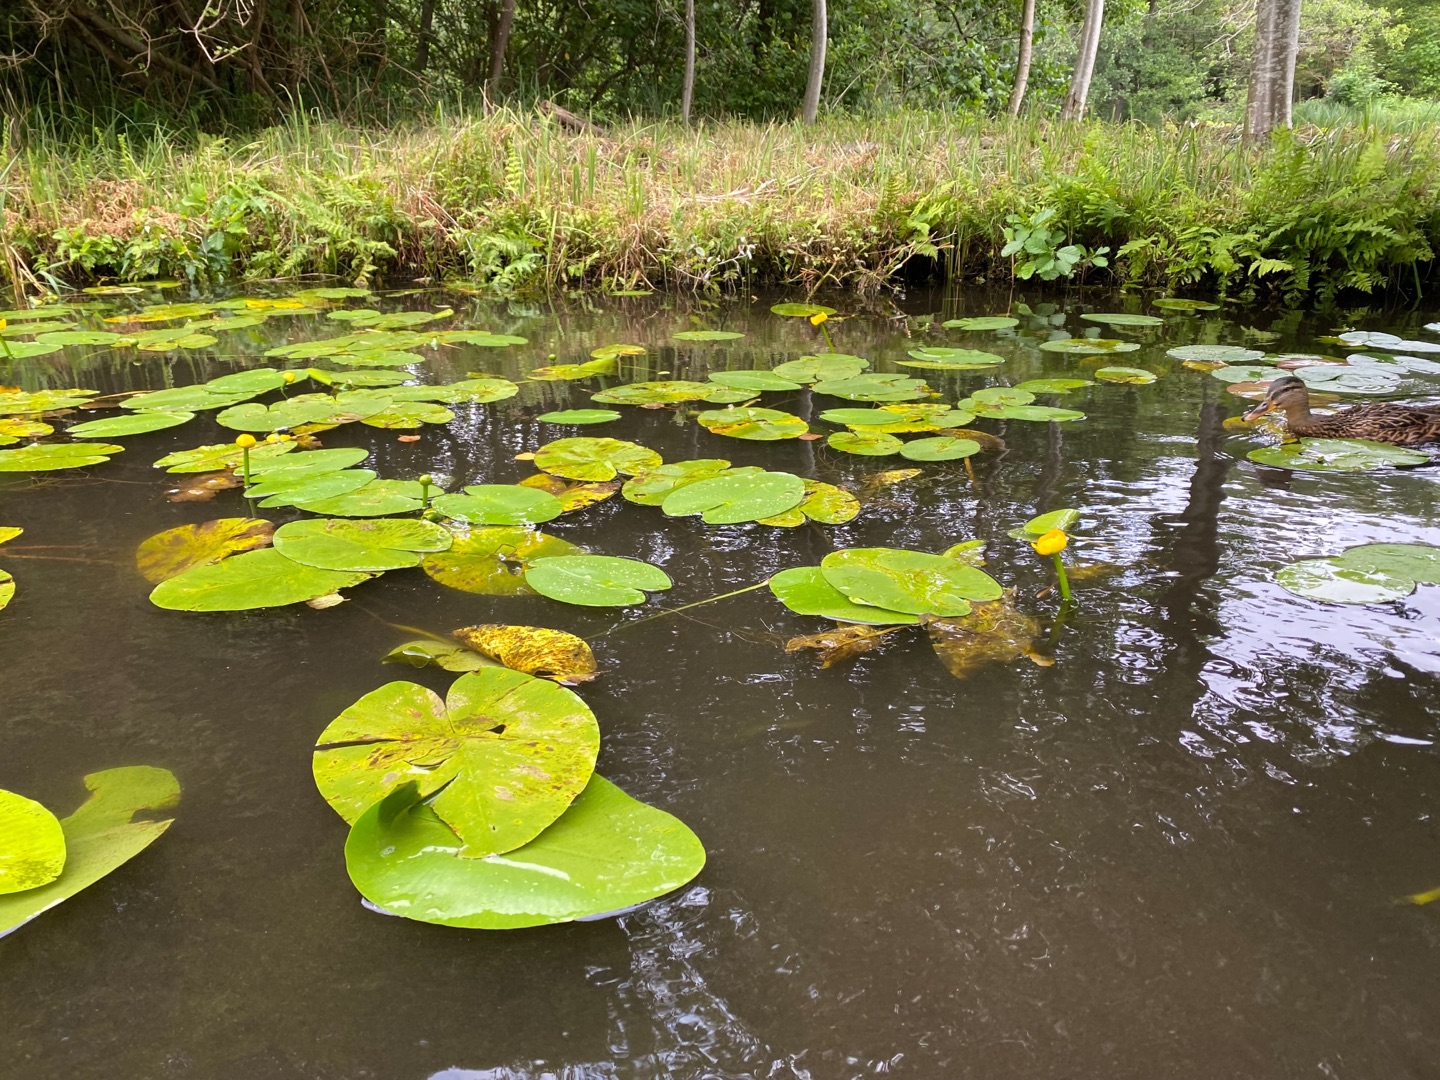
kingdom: Plantae
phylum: Tracheophyta
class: Magnoliopsida
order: Nymphaeales
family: Nymphaeaceae
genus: Nuphar
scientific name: Nuphar lutea
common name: Gul åkande
